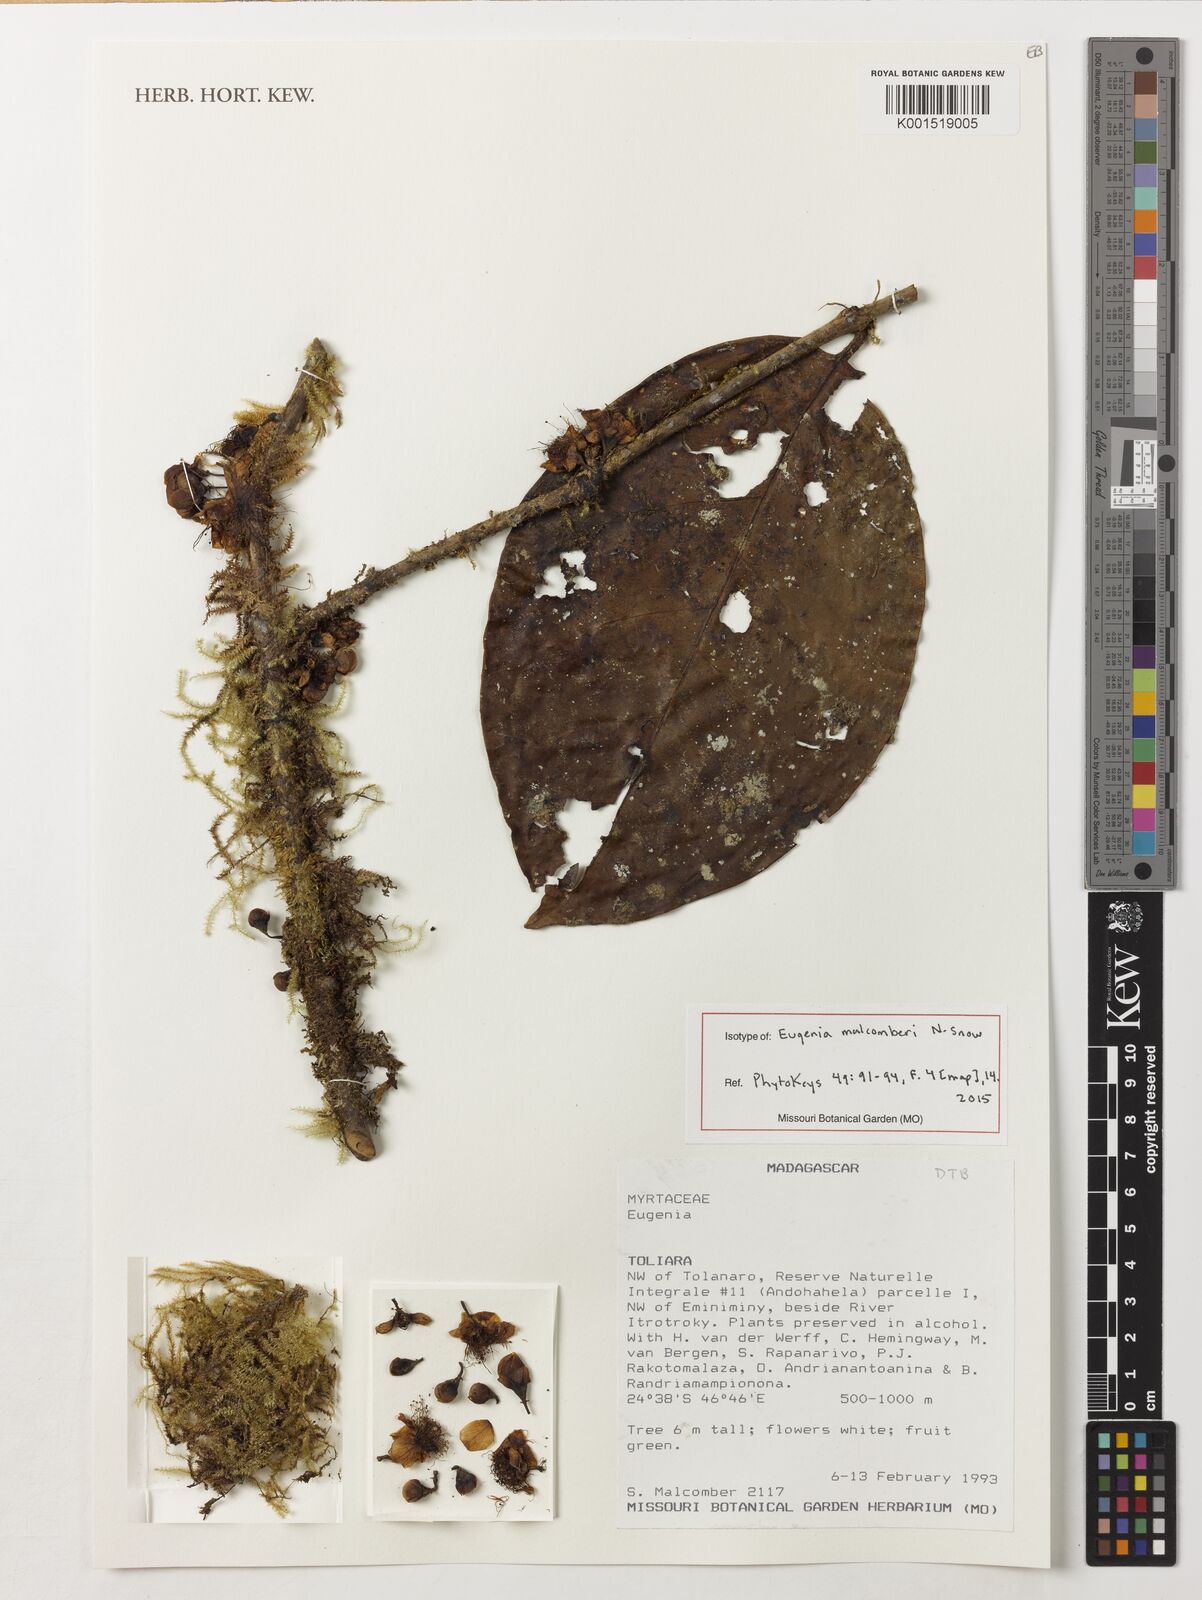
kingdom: Plantae
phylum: Tracheophyta
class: Magnoliopsida
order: Myrtales
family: Myrtaceae
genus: Eugenia
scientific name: Eugenia malcomberi
